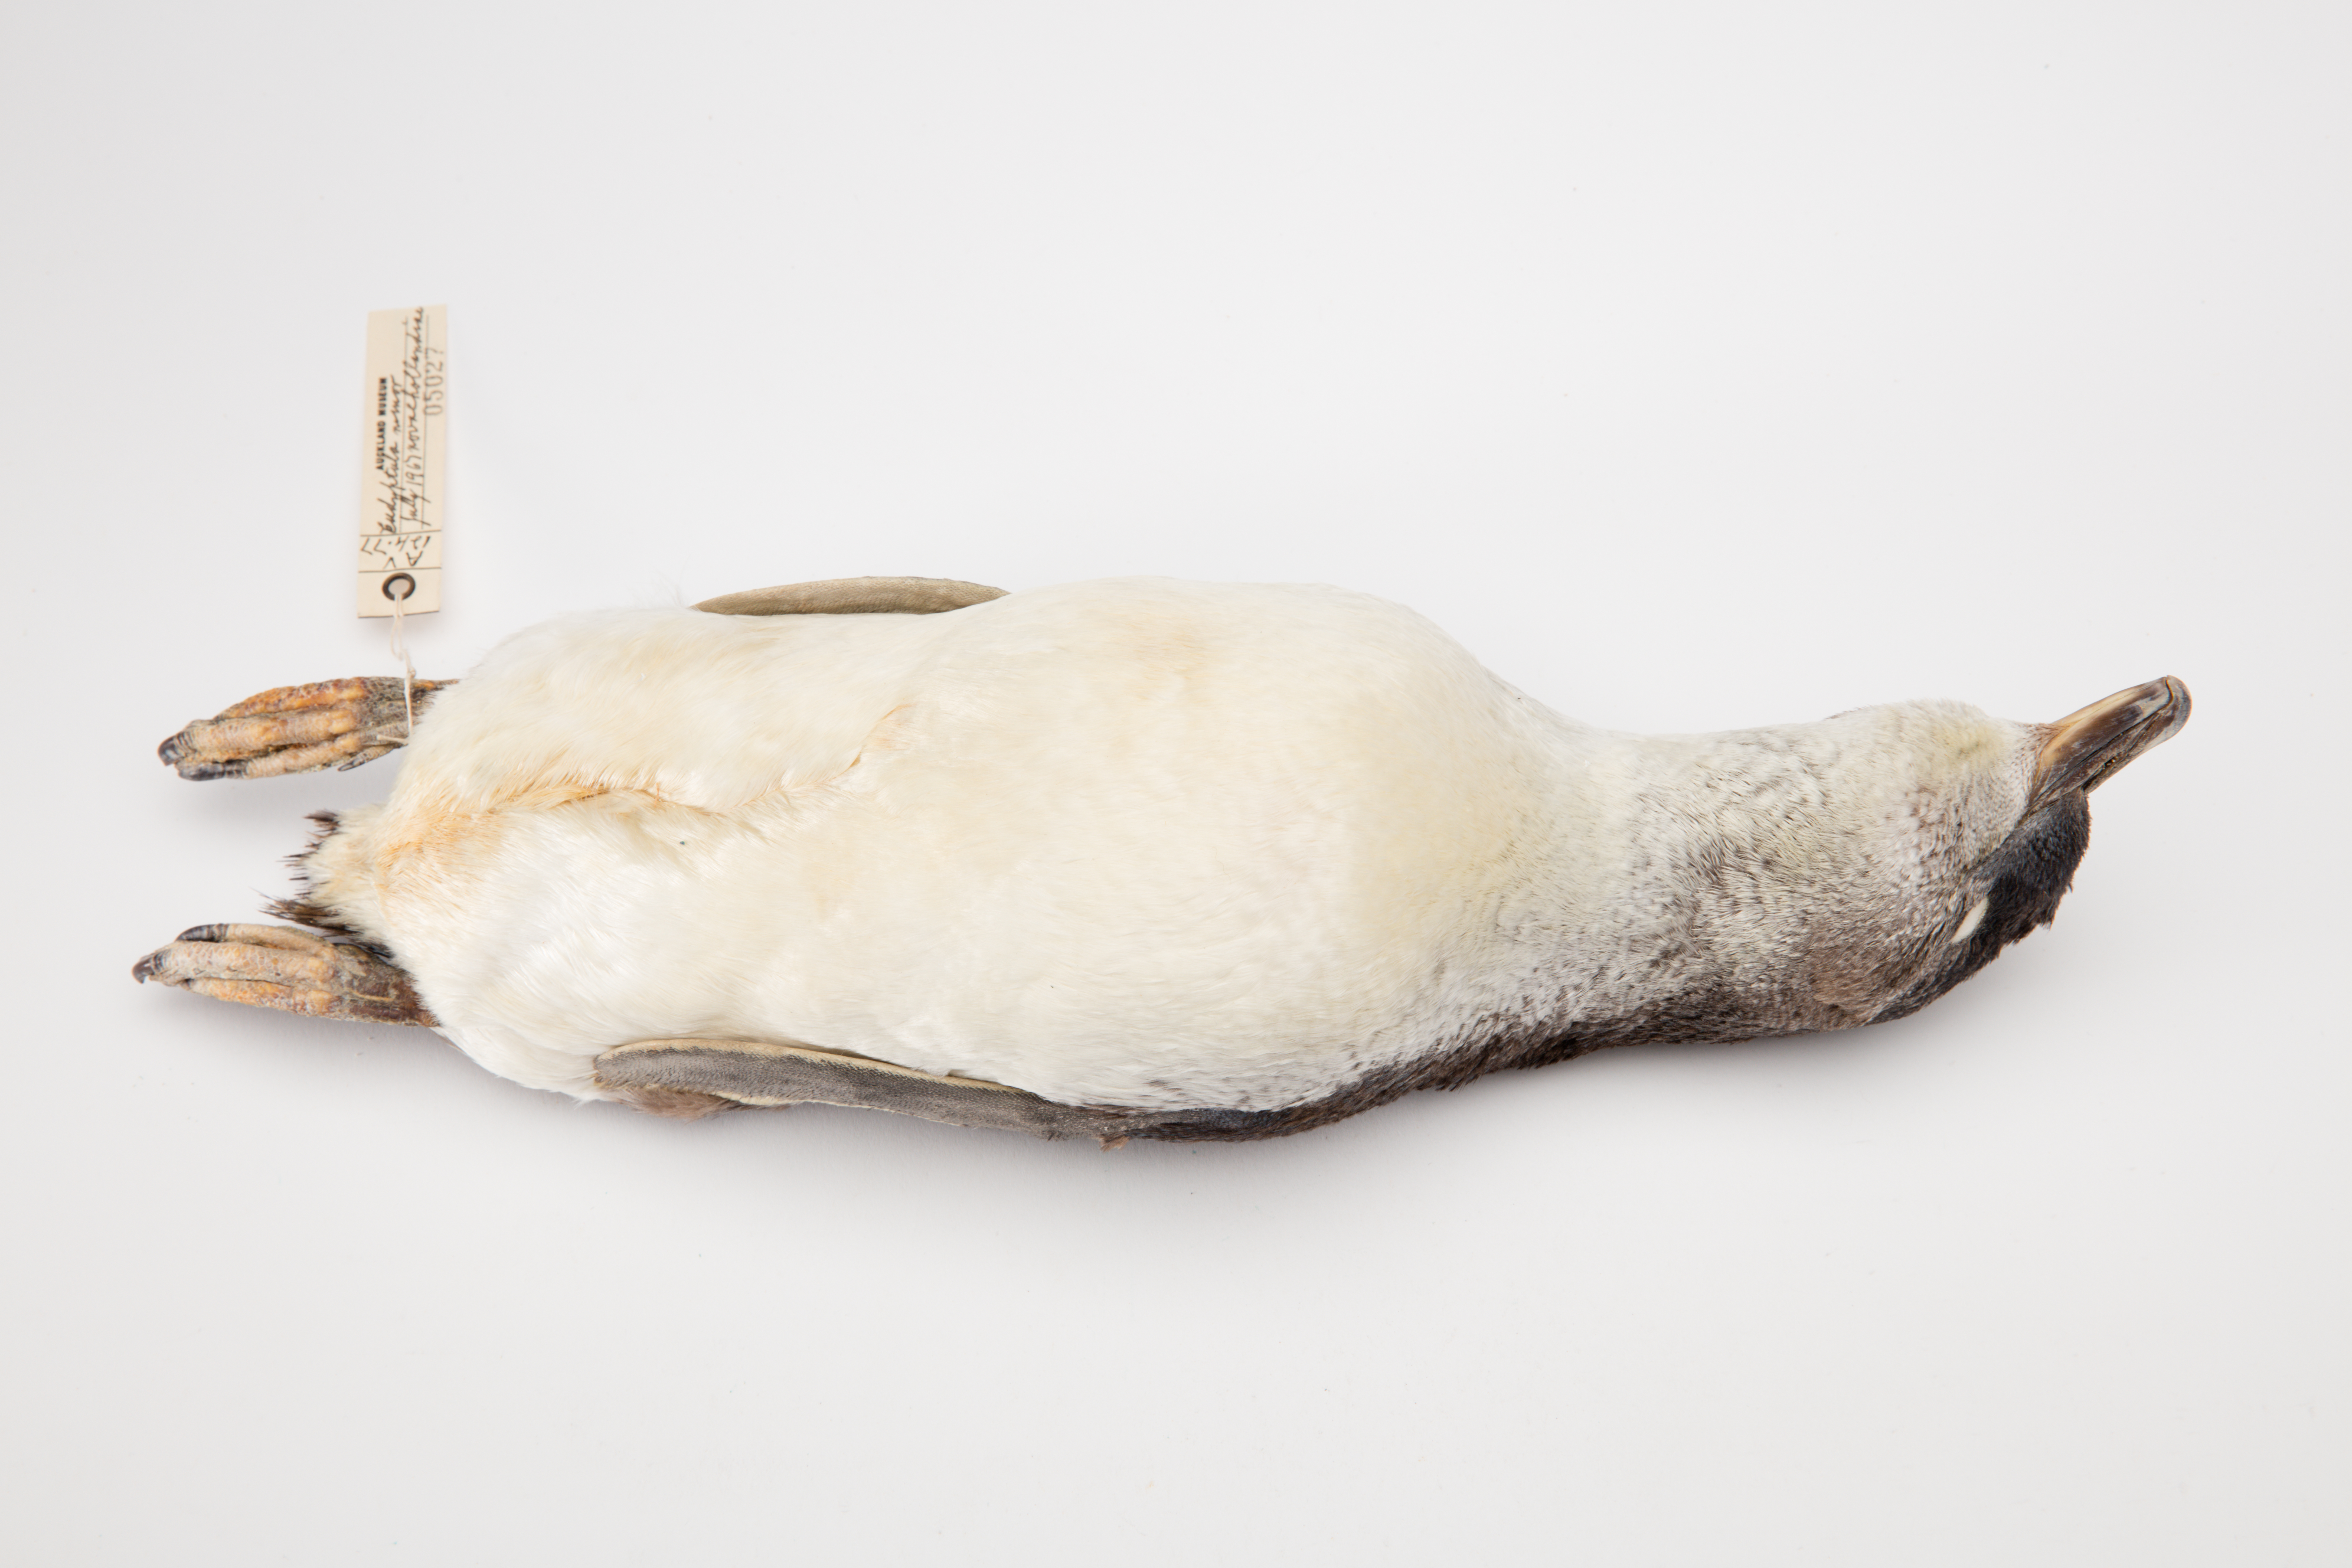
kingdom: Animalia
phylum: Chordata
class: Aves
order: Sphenisciformes
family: Spheniscidae
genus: Eudyptula
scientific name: Eudyptula minor
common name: Little penguin
